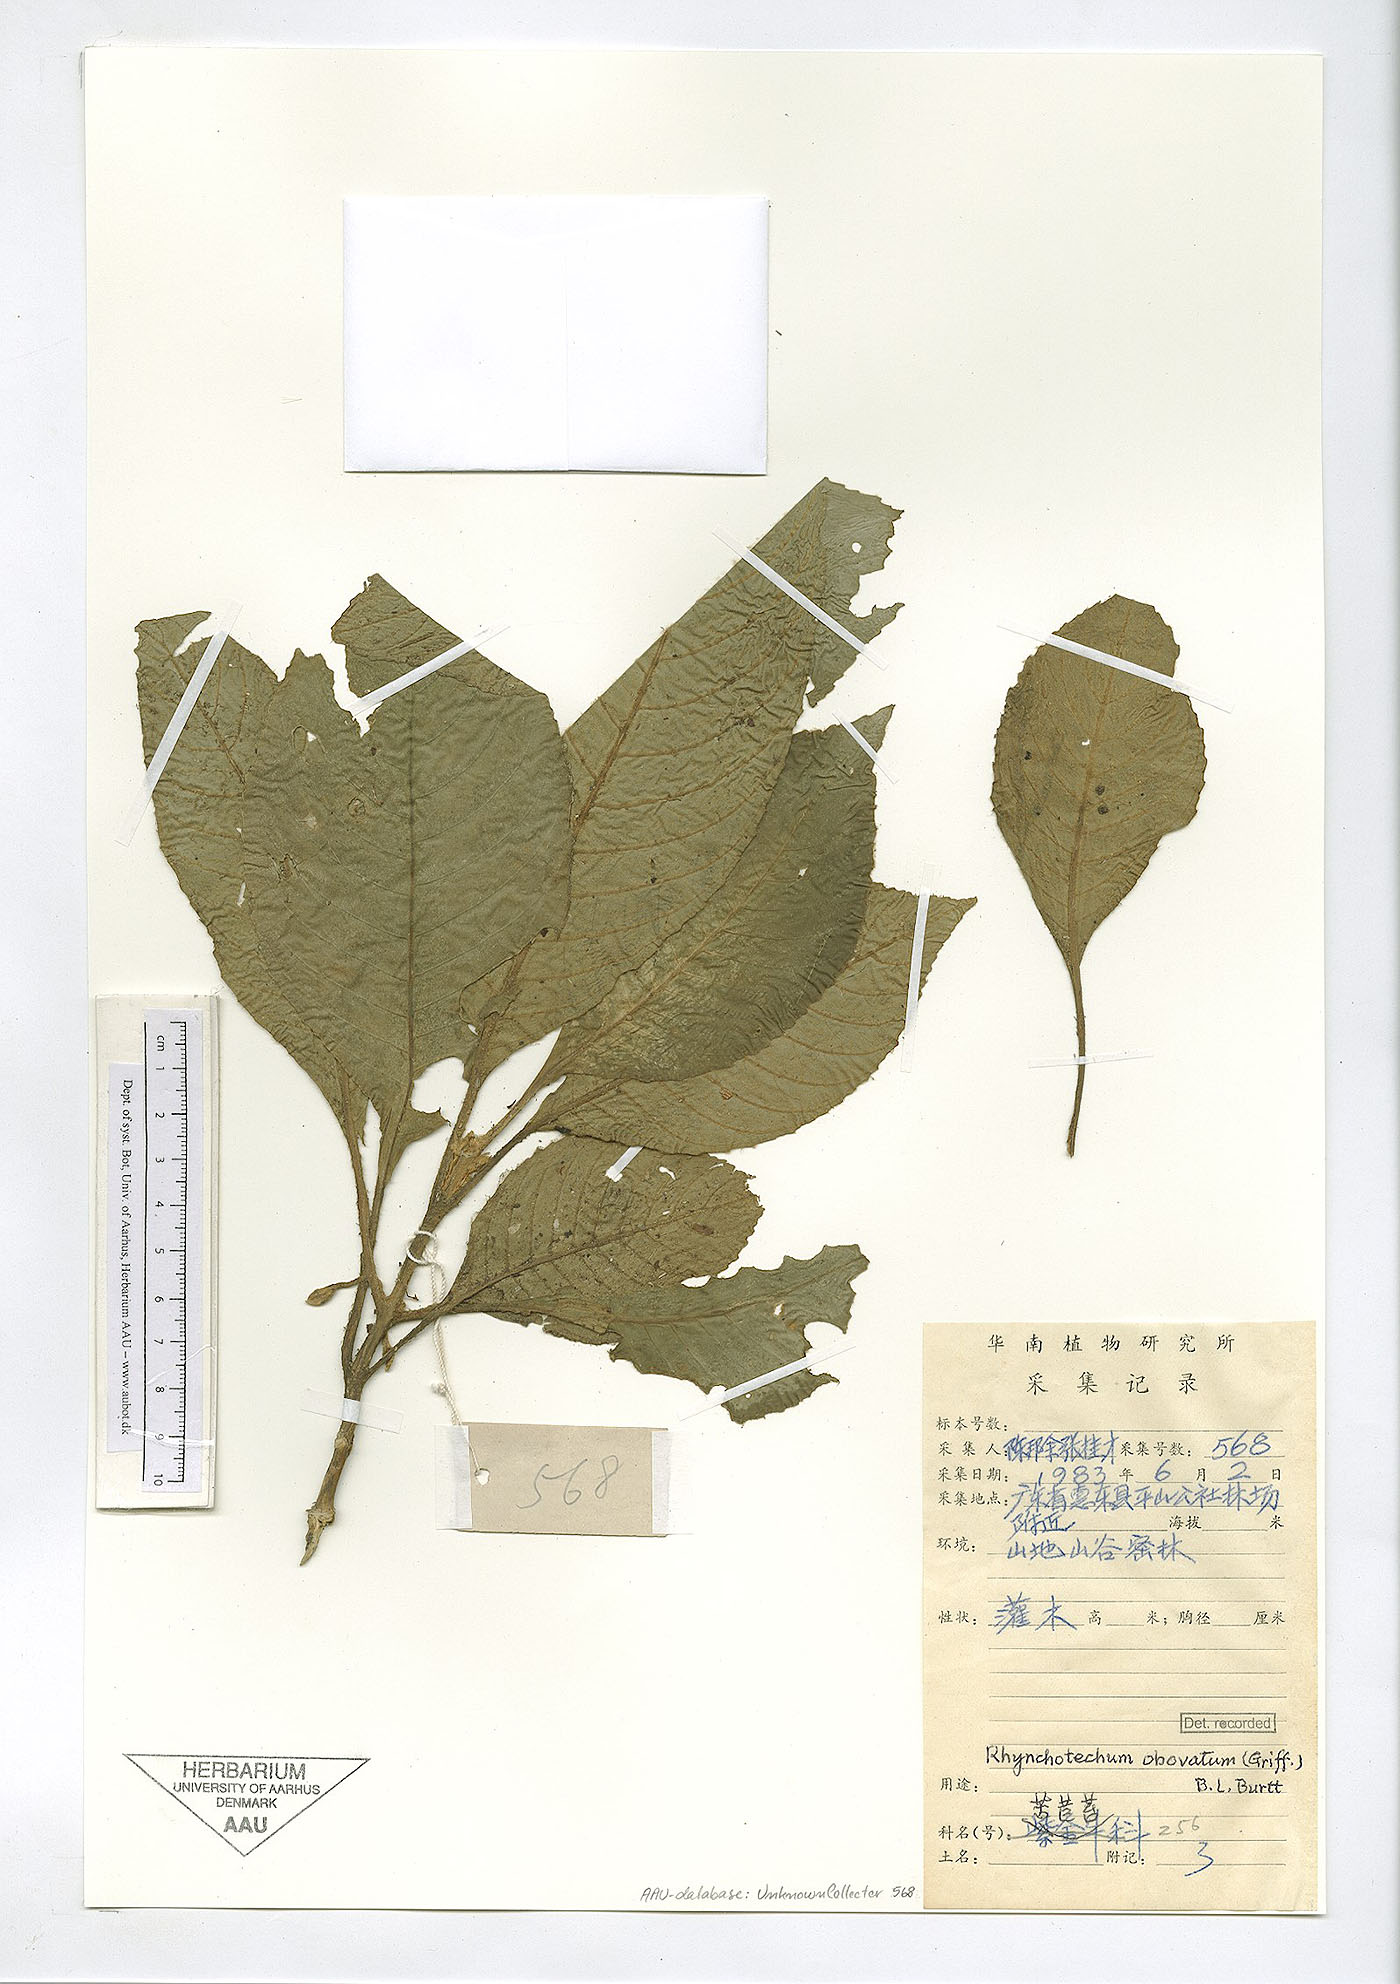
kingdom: Plantae
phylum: Tracheophyta
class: Magnoliopsida
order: Lamiales
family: Gesneriaceae
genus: Rhynchotechum
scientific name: Rhynchotechum formosanum
